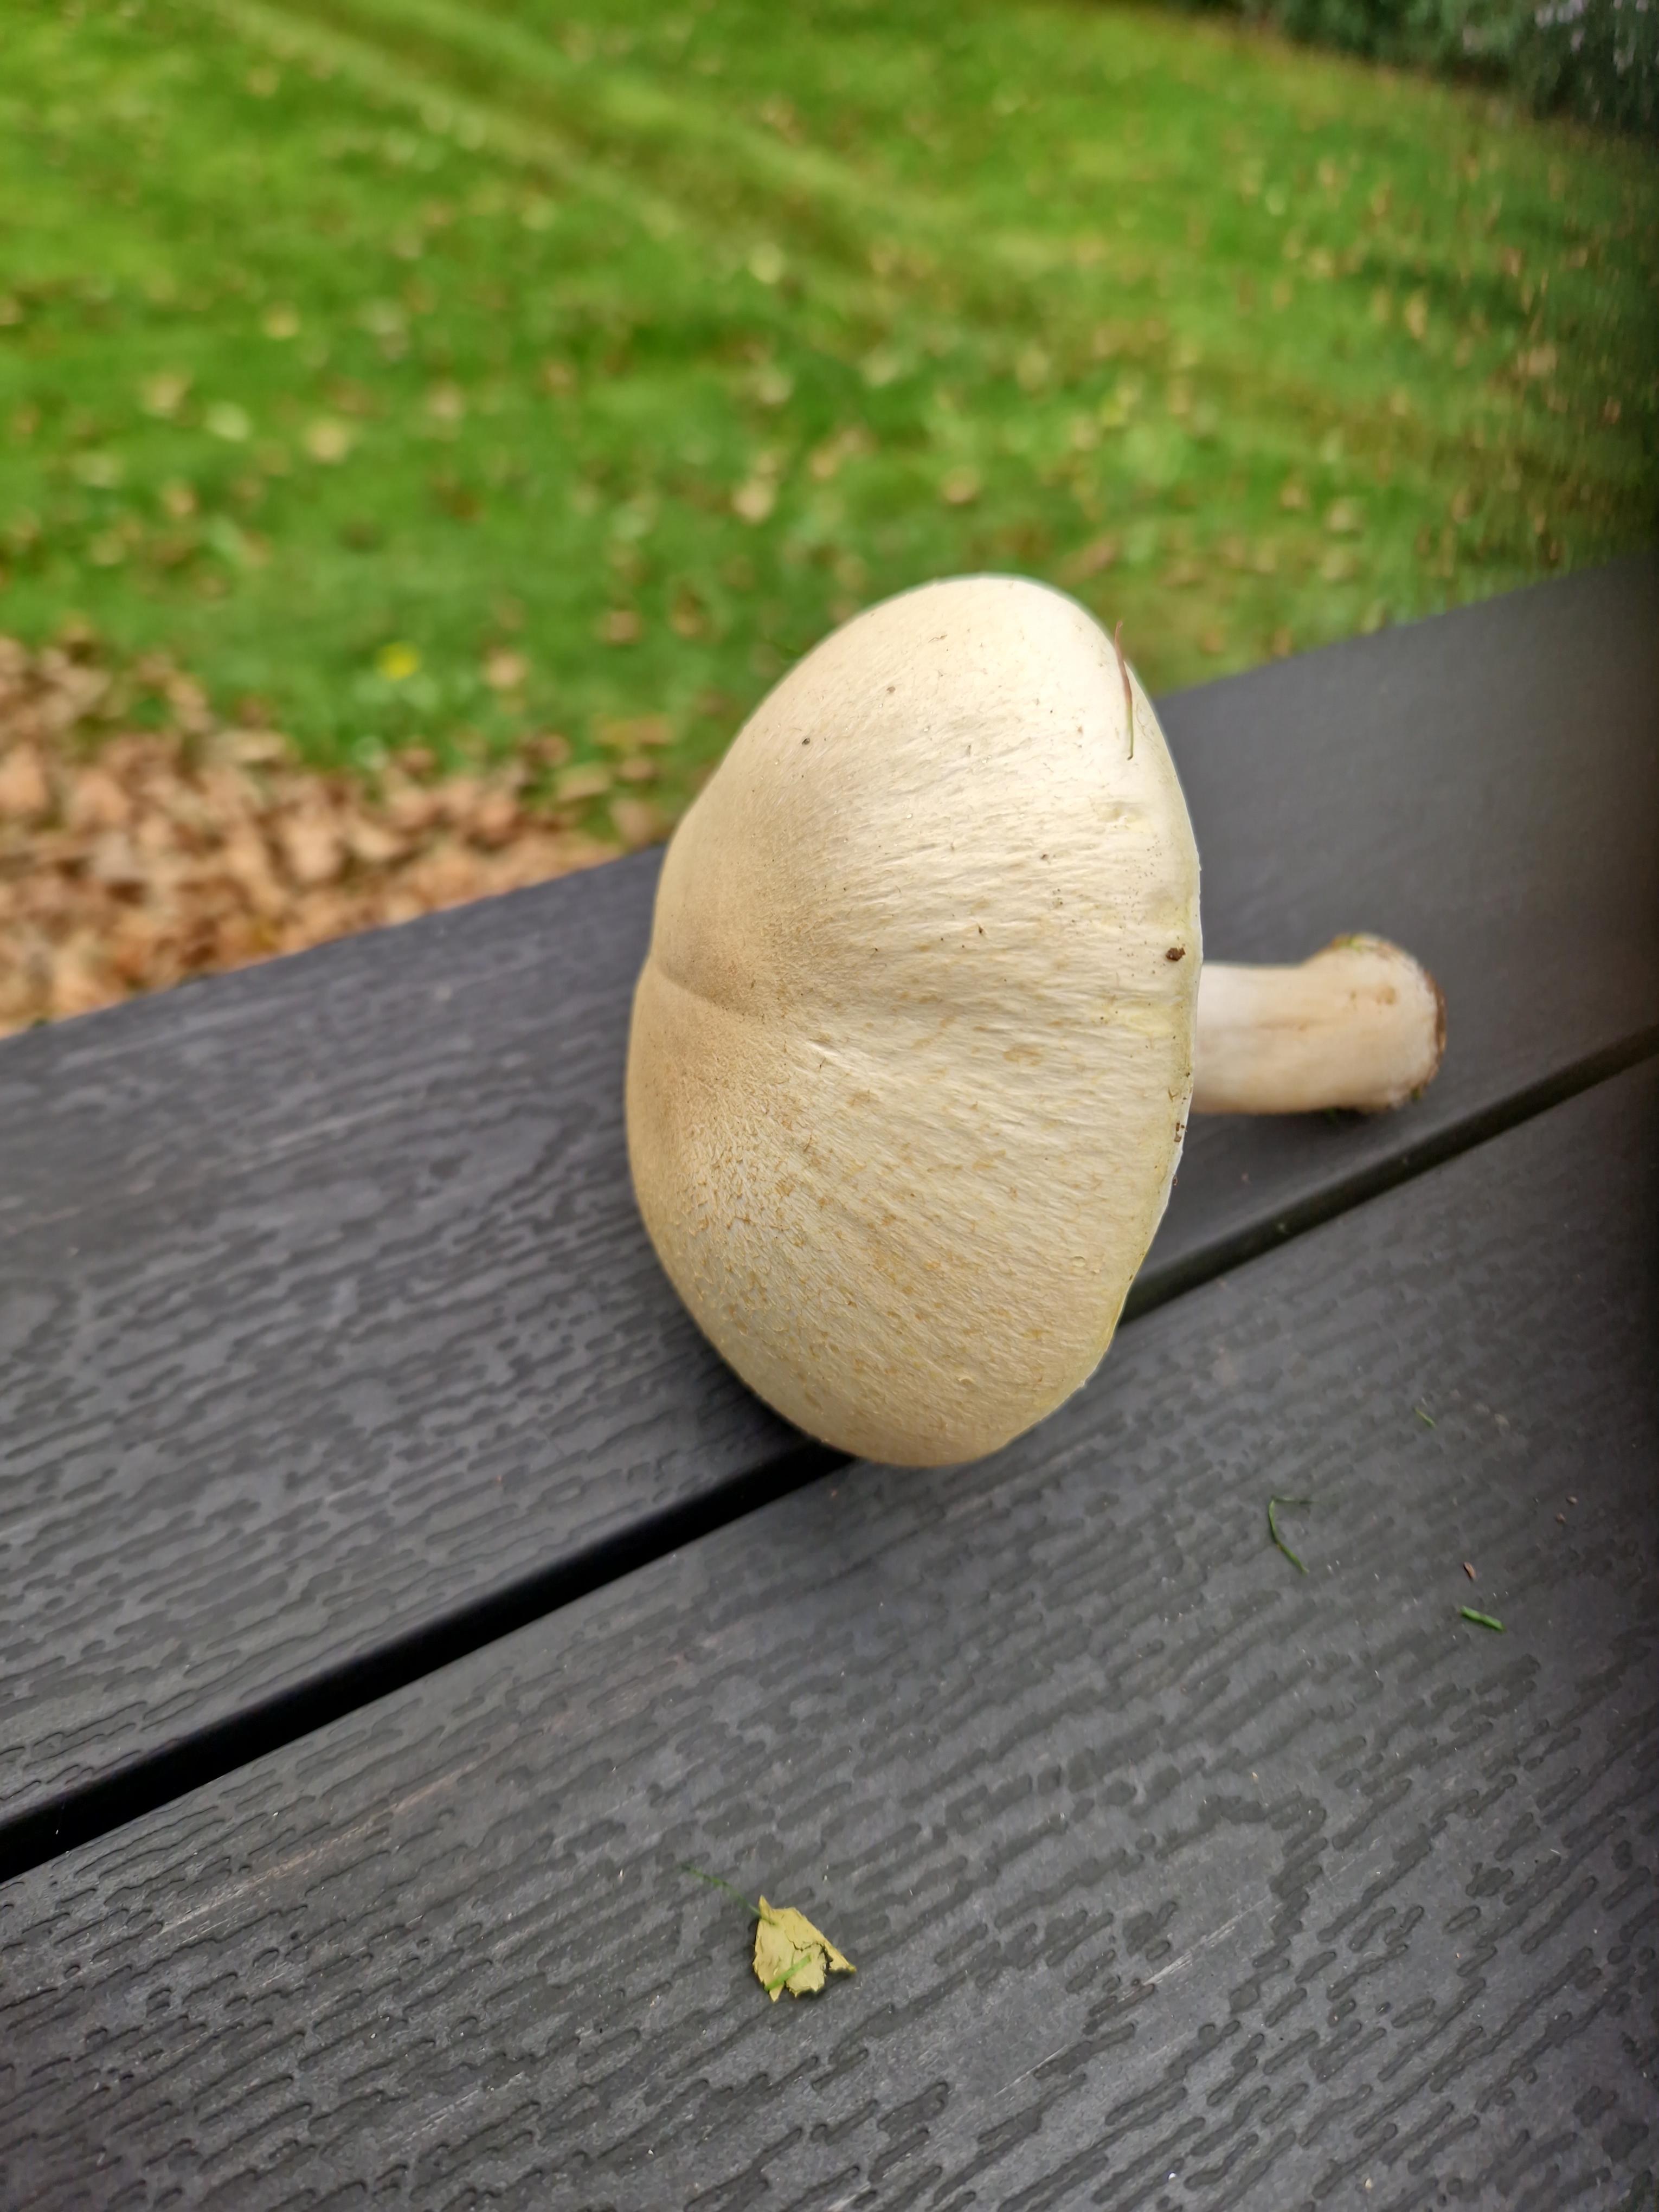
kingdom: Fungi
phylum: Basidiomycota
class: Agaricomycetes
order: Agaricales
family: Agaricaceae
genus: Agaricus
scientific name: Agaricus
